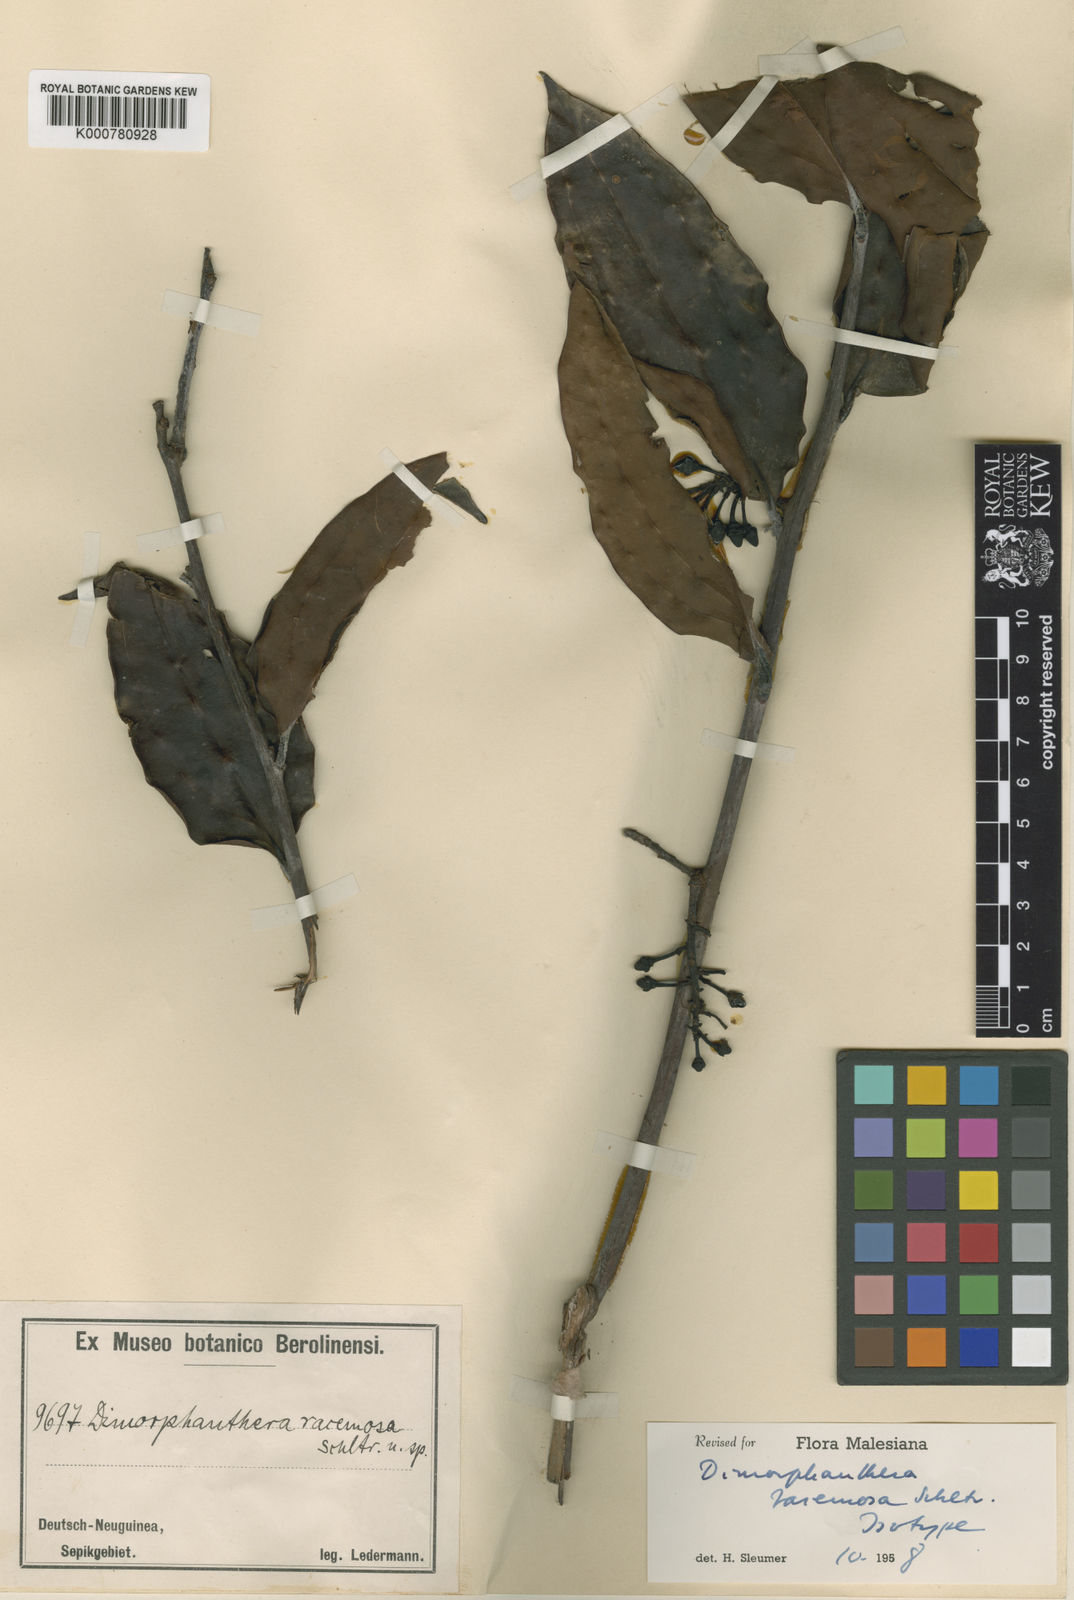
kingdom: Plantae
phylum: Tracheophyta
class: Magnoliopsida
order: Ericales
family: Ericaceae
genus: Dimorphanthera
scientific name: Dimorphanthera racemosa
